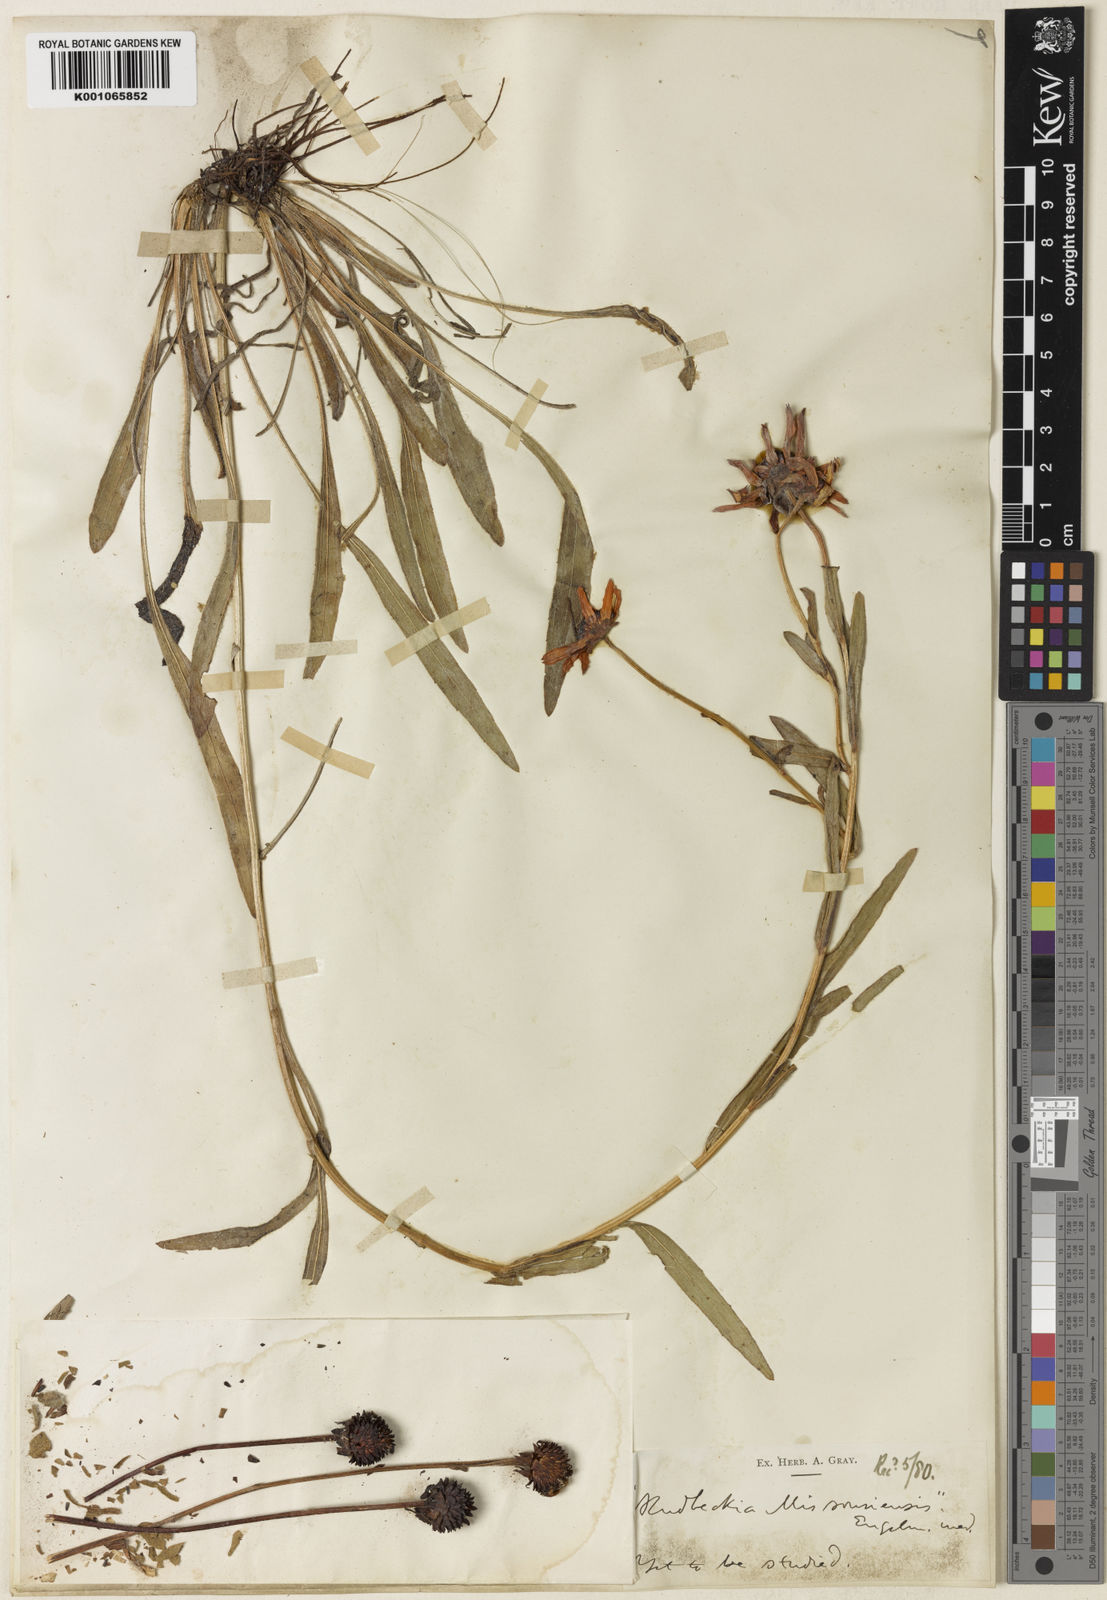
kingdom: Plantae
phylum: Tracheophyta
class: Magnoliopsida
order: Asterales
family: Asteraceae
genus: Rudbeckia
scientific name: Rudbeckia missouriensis
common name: Missouri coneflower
